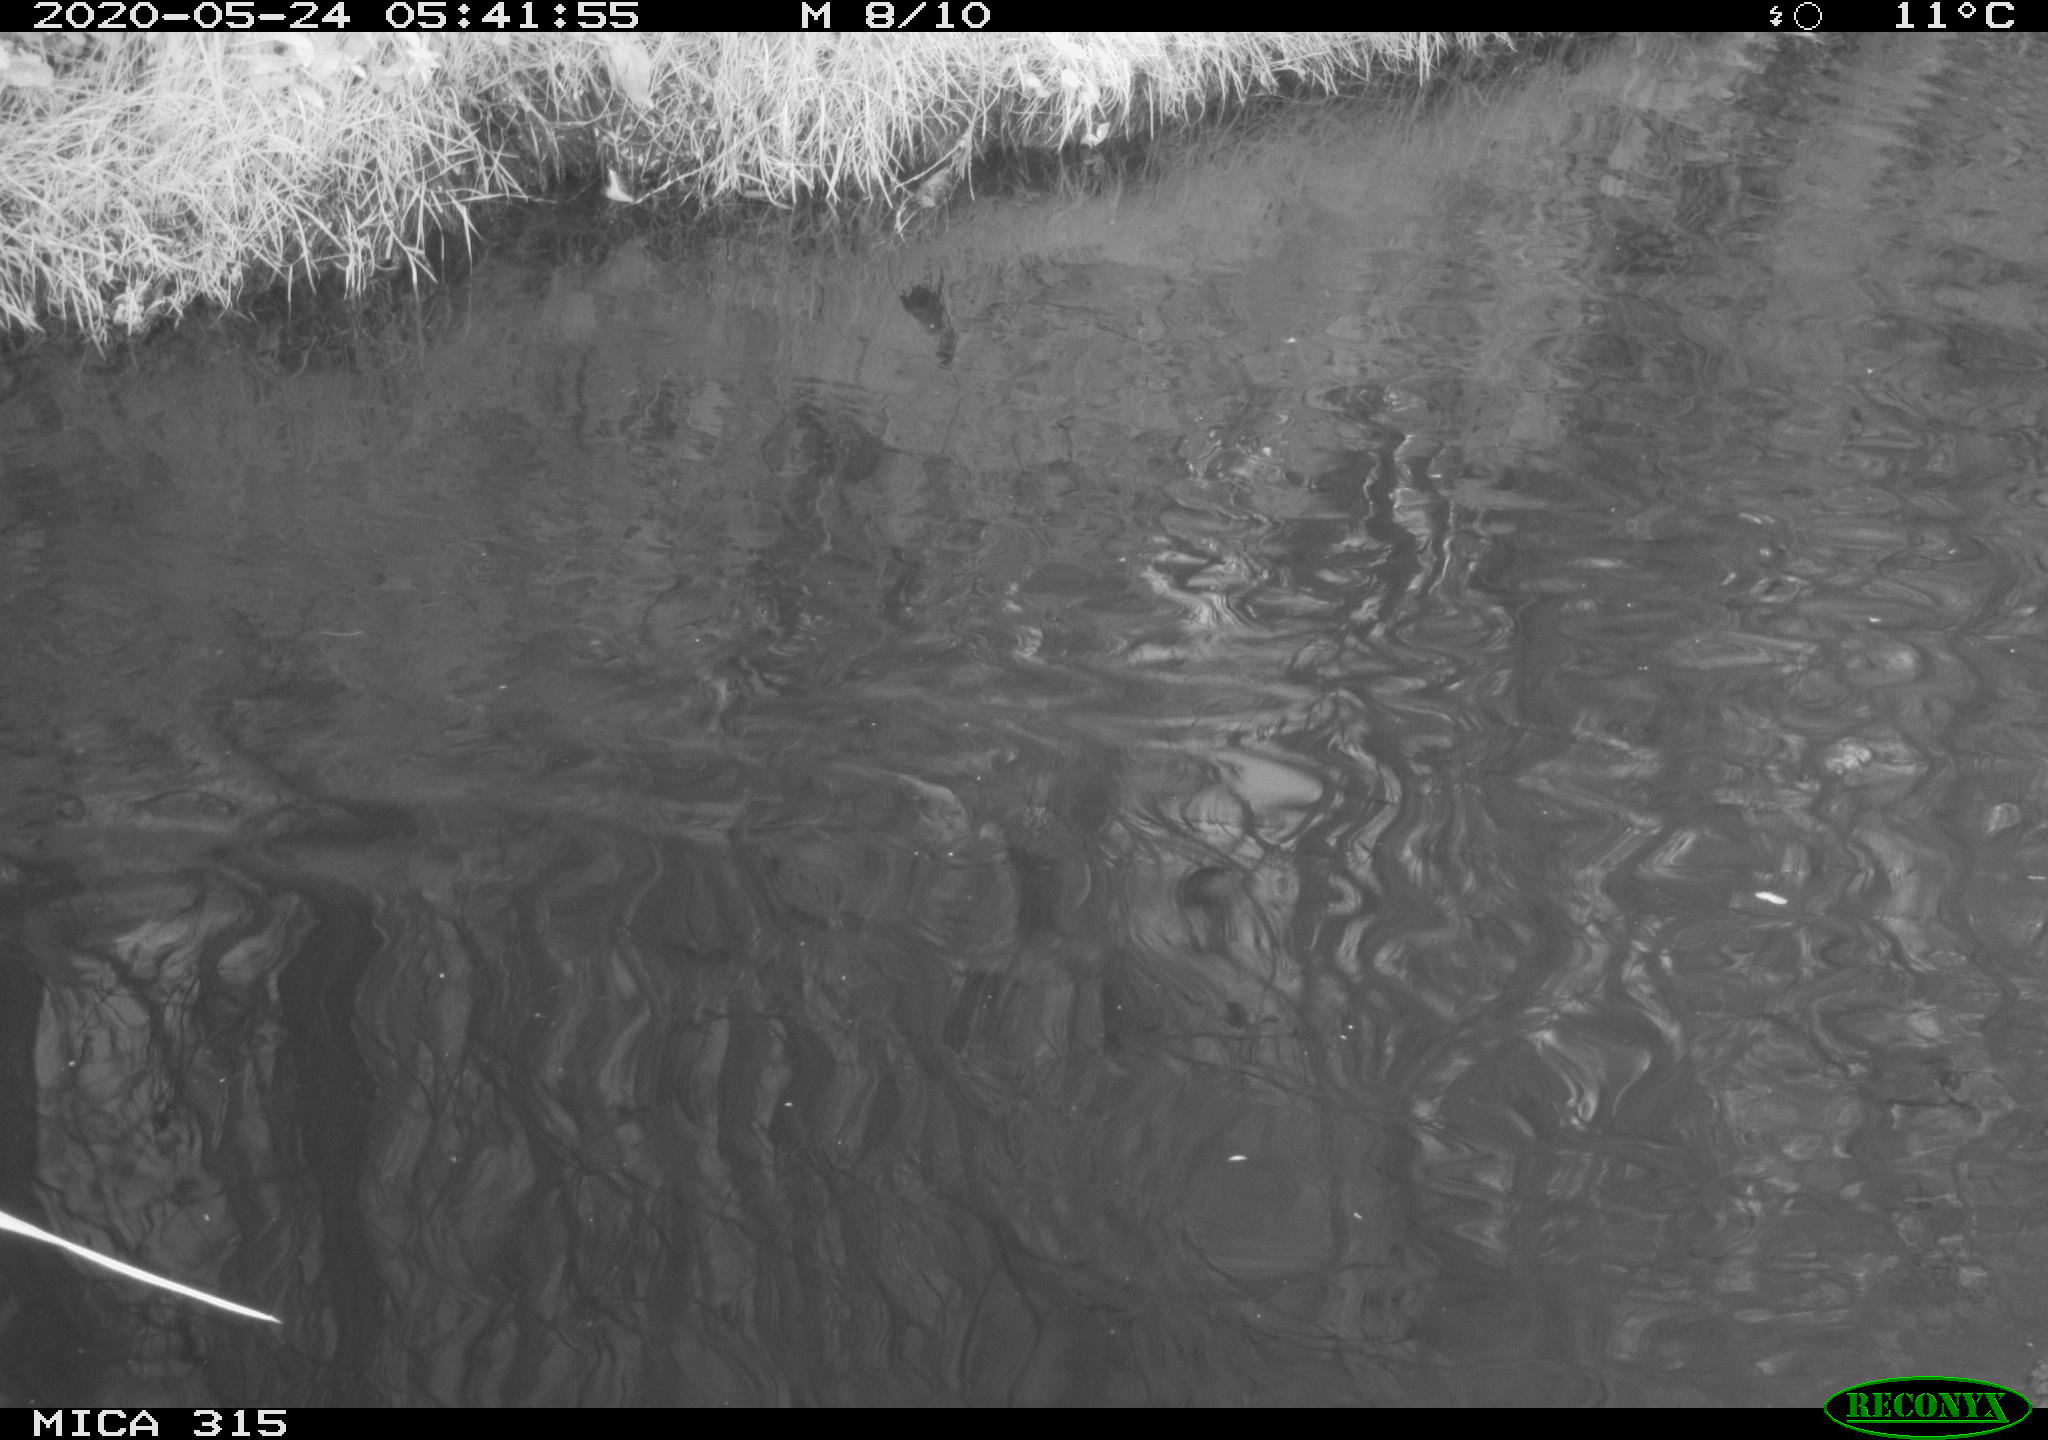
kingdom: Animalia
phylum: Chordata
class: Aves
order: Anseriformes
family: Anatidae
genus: Anas
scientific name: Anas platyrhynchos
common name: Mallard
